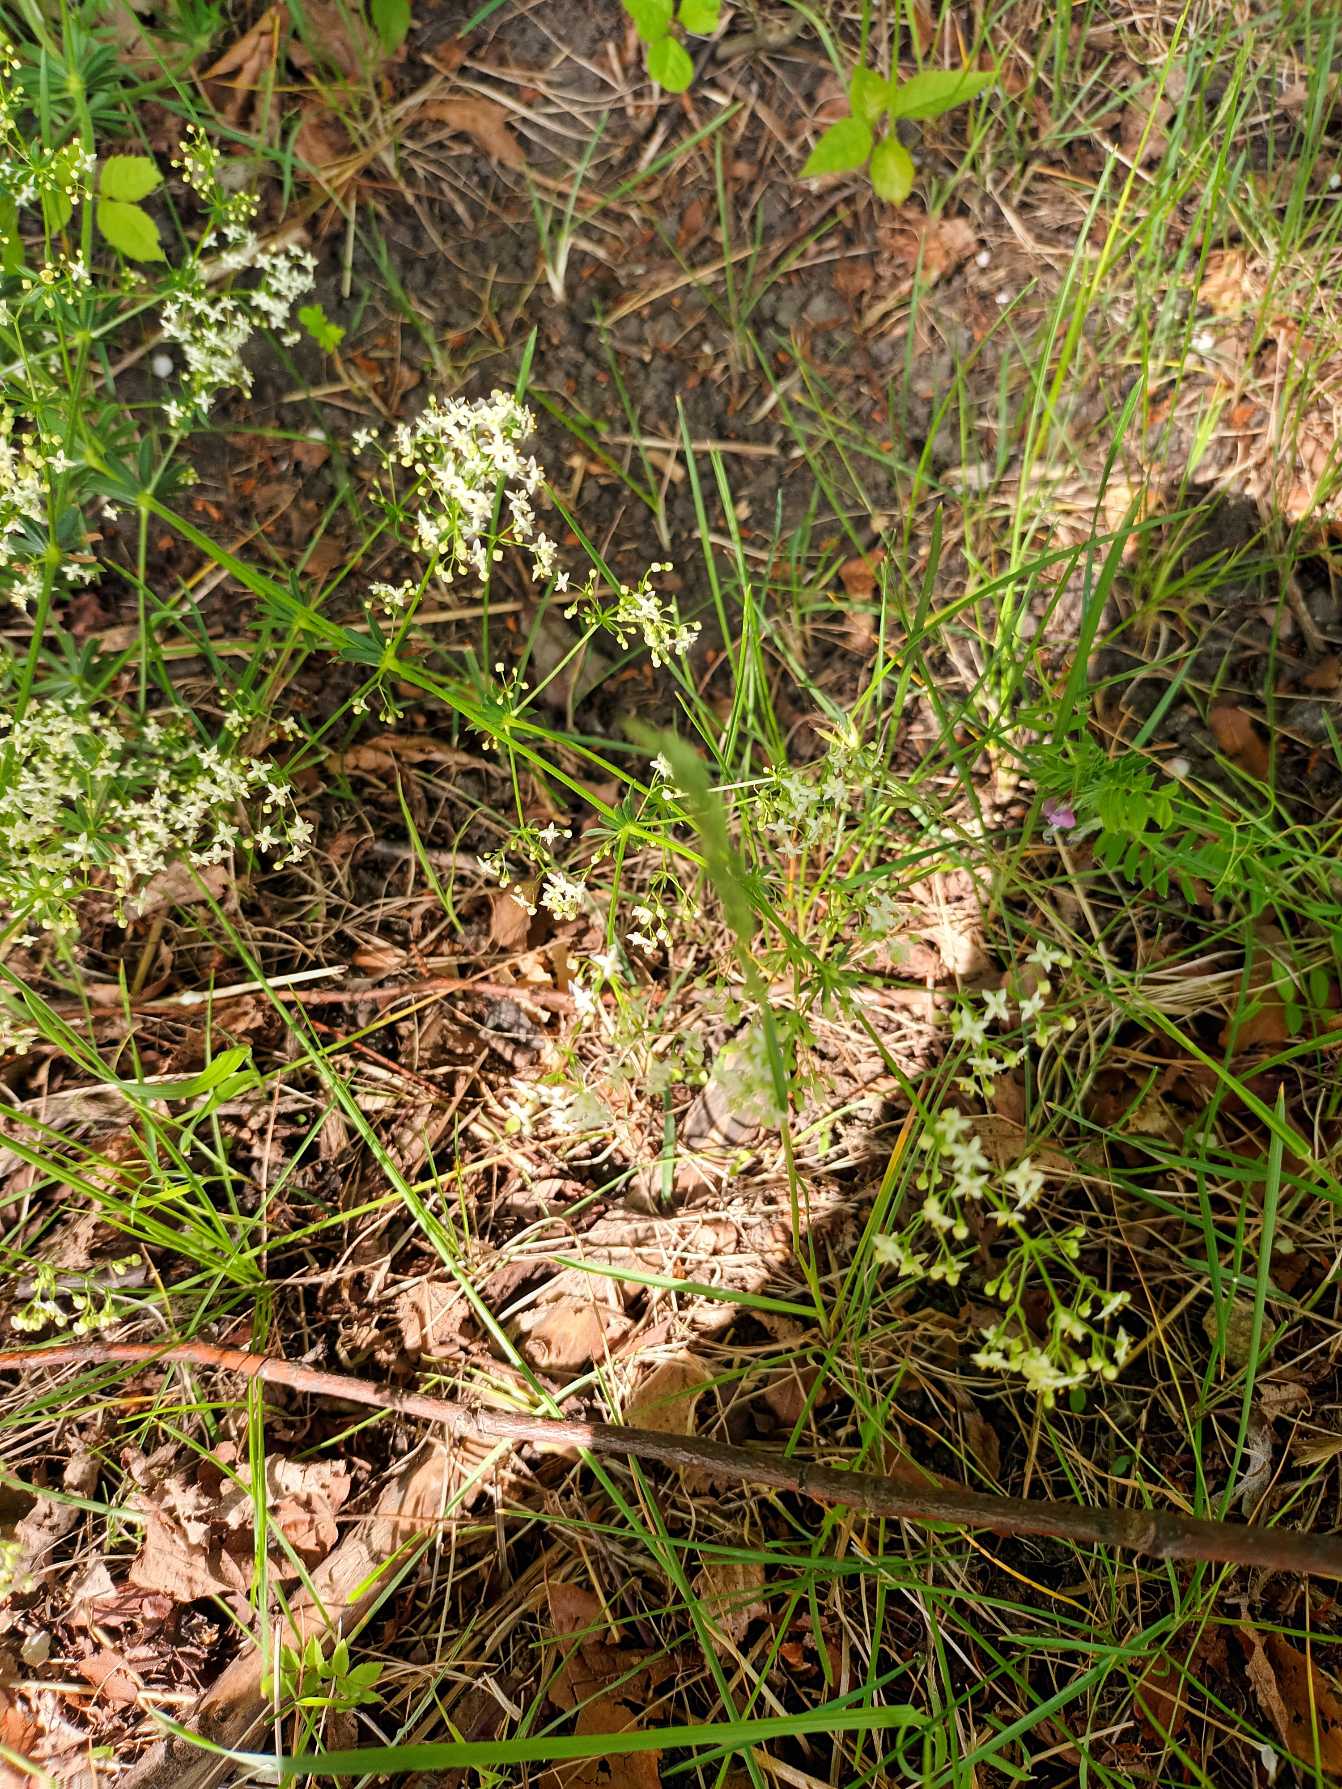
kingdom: Plantae
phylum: Tracheophyta
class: Magnoliopsida
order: Gentianales
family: Rubiaceae
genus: Galium
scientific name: Galium mollugo
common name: Hvid snerre
